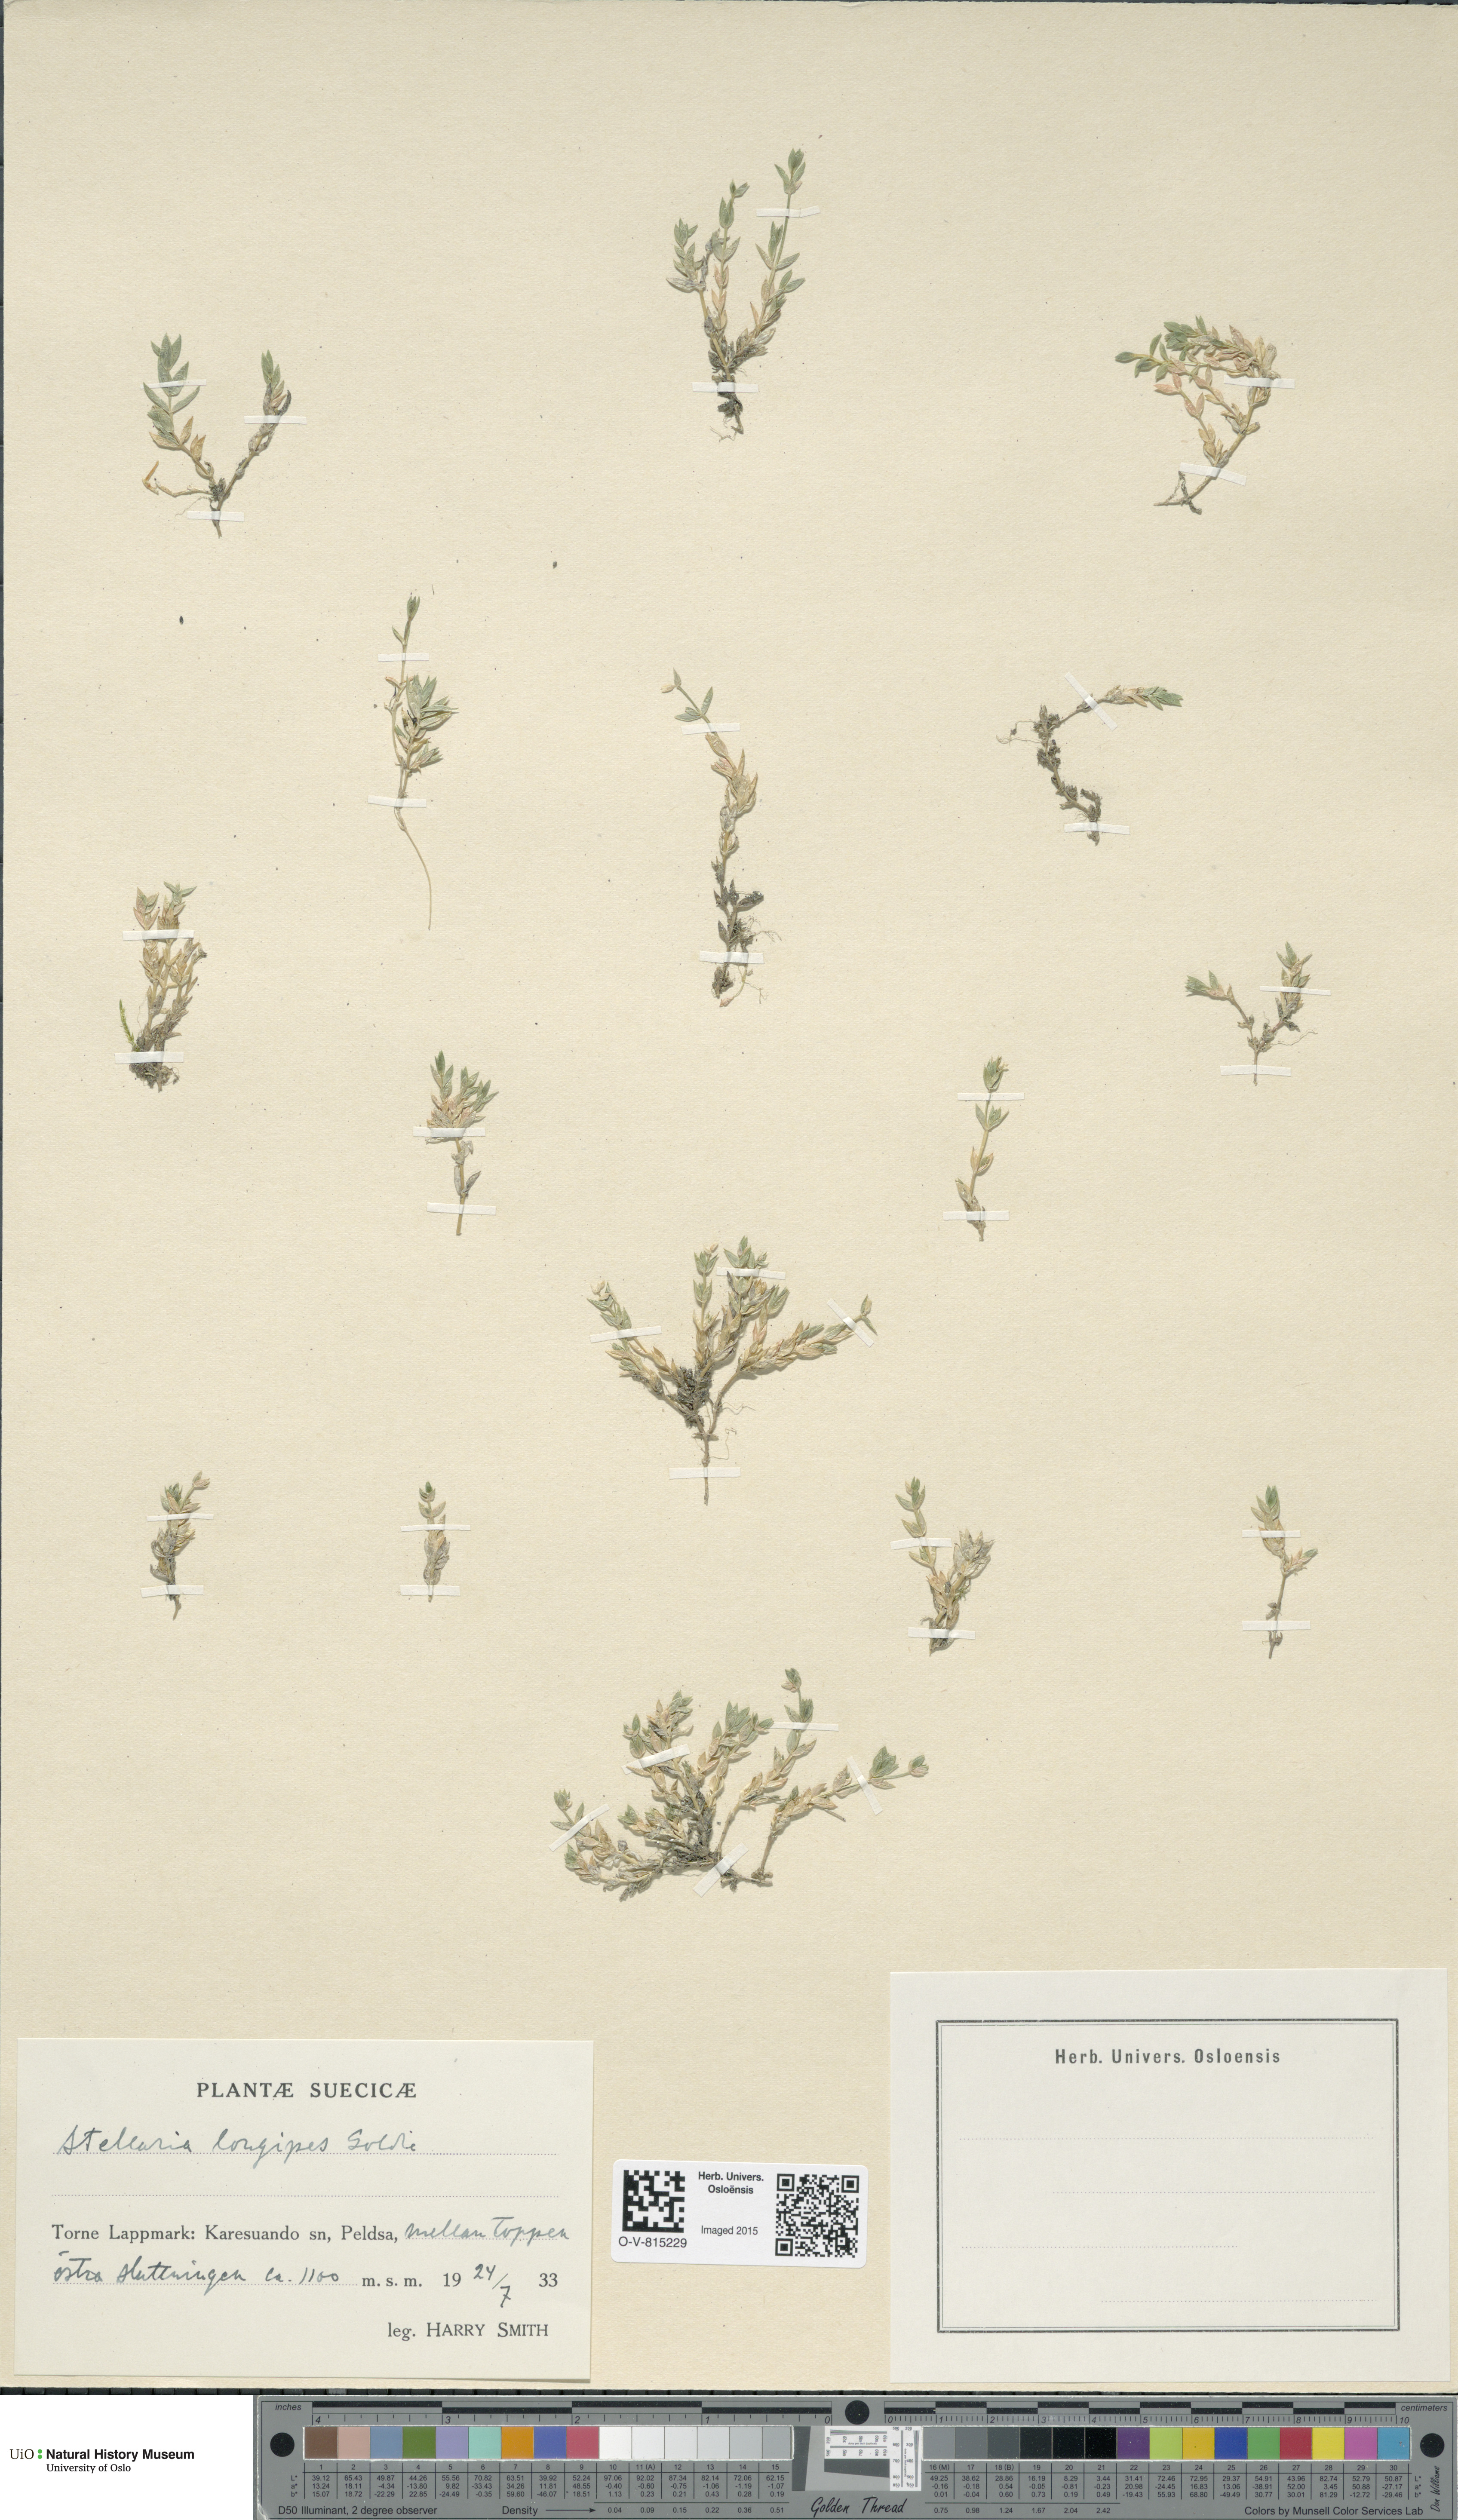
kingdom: Plantae
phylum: Tracheophyta
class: Magnoliopsida
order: Caryophyllales
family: Caryophyllaceae
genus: Stellaria
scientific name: Stellaria longipes
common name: Goldie's starwort
